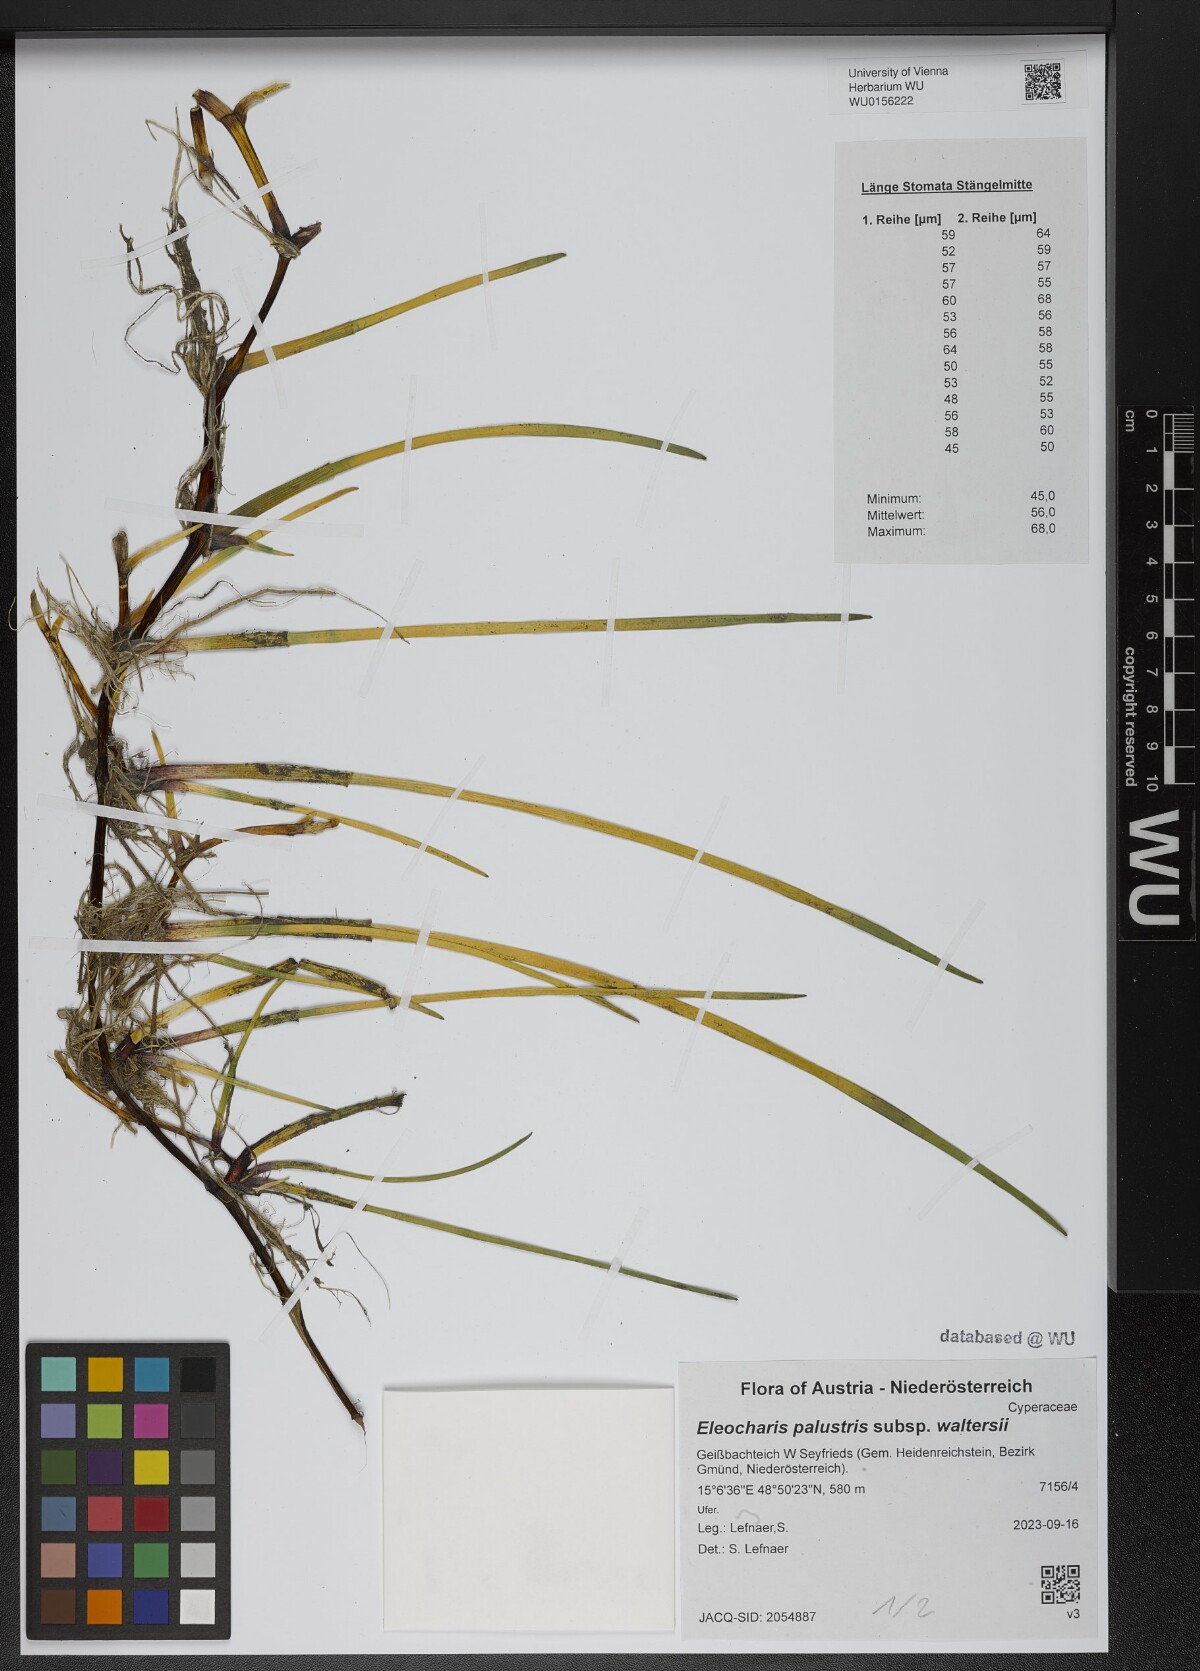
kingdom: Plantae
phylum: Tracheophyta
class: Liliopsida
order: Poales
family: Cyperaceae
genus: Eleocharis
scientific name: Eleocharis palustris
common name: Common spike-rush
